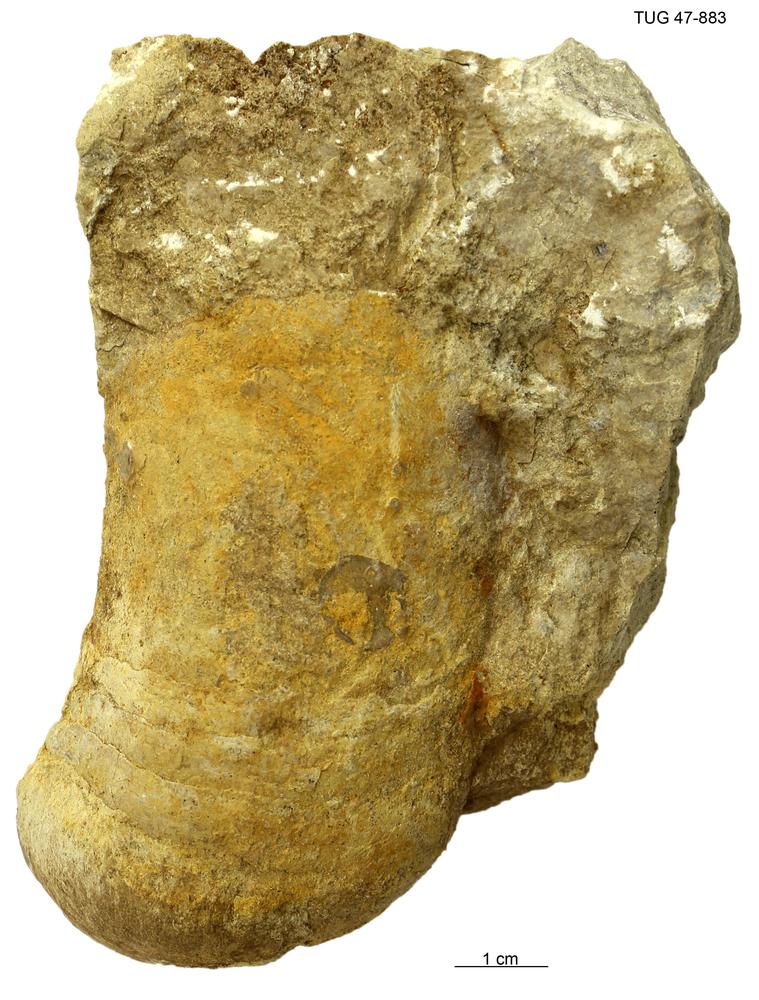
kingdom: Animalia
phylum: Mollusca
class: Cephalopoda
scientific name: Cephalopoda
